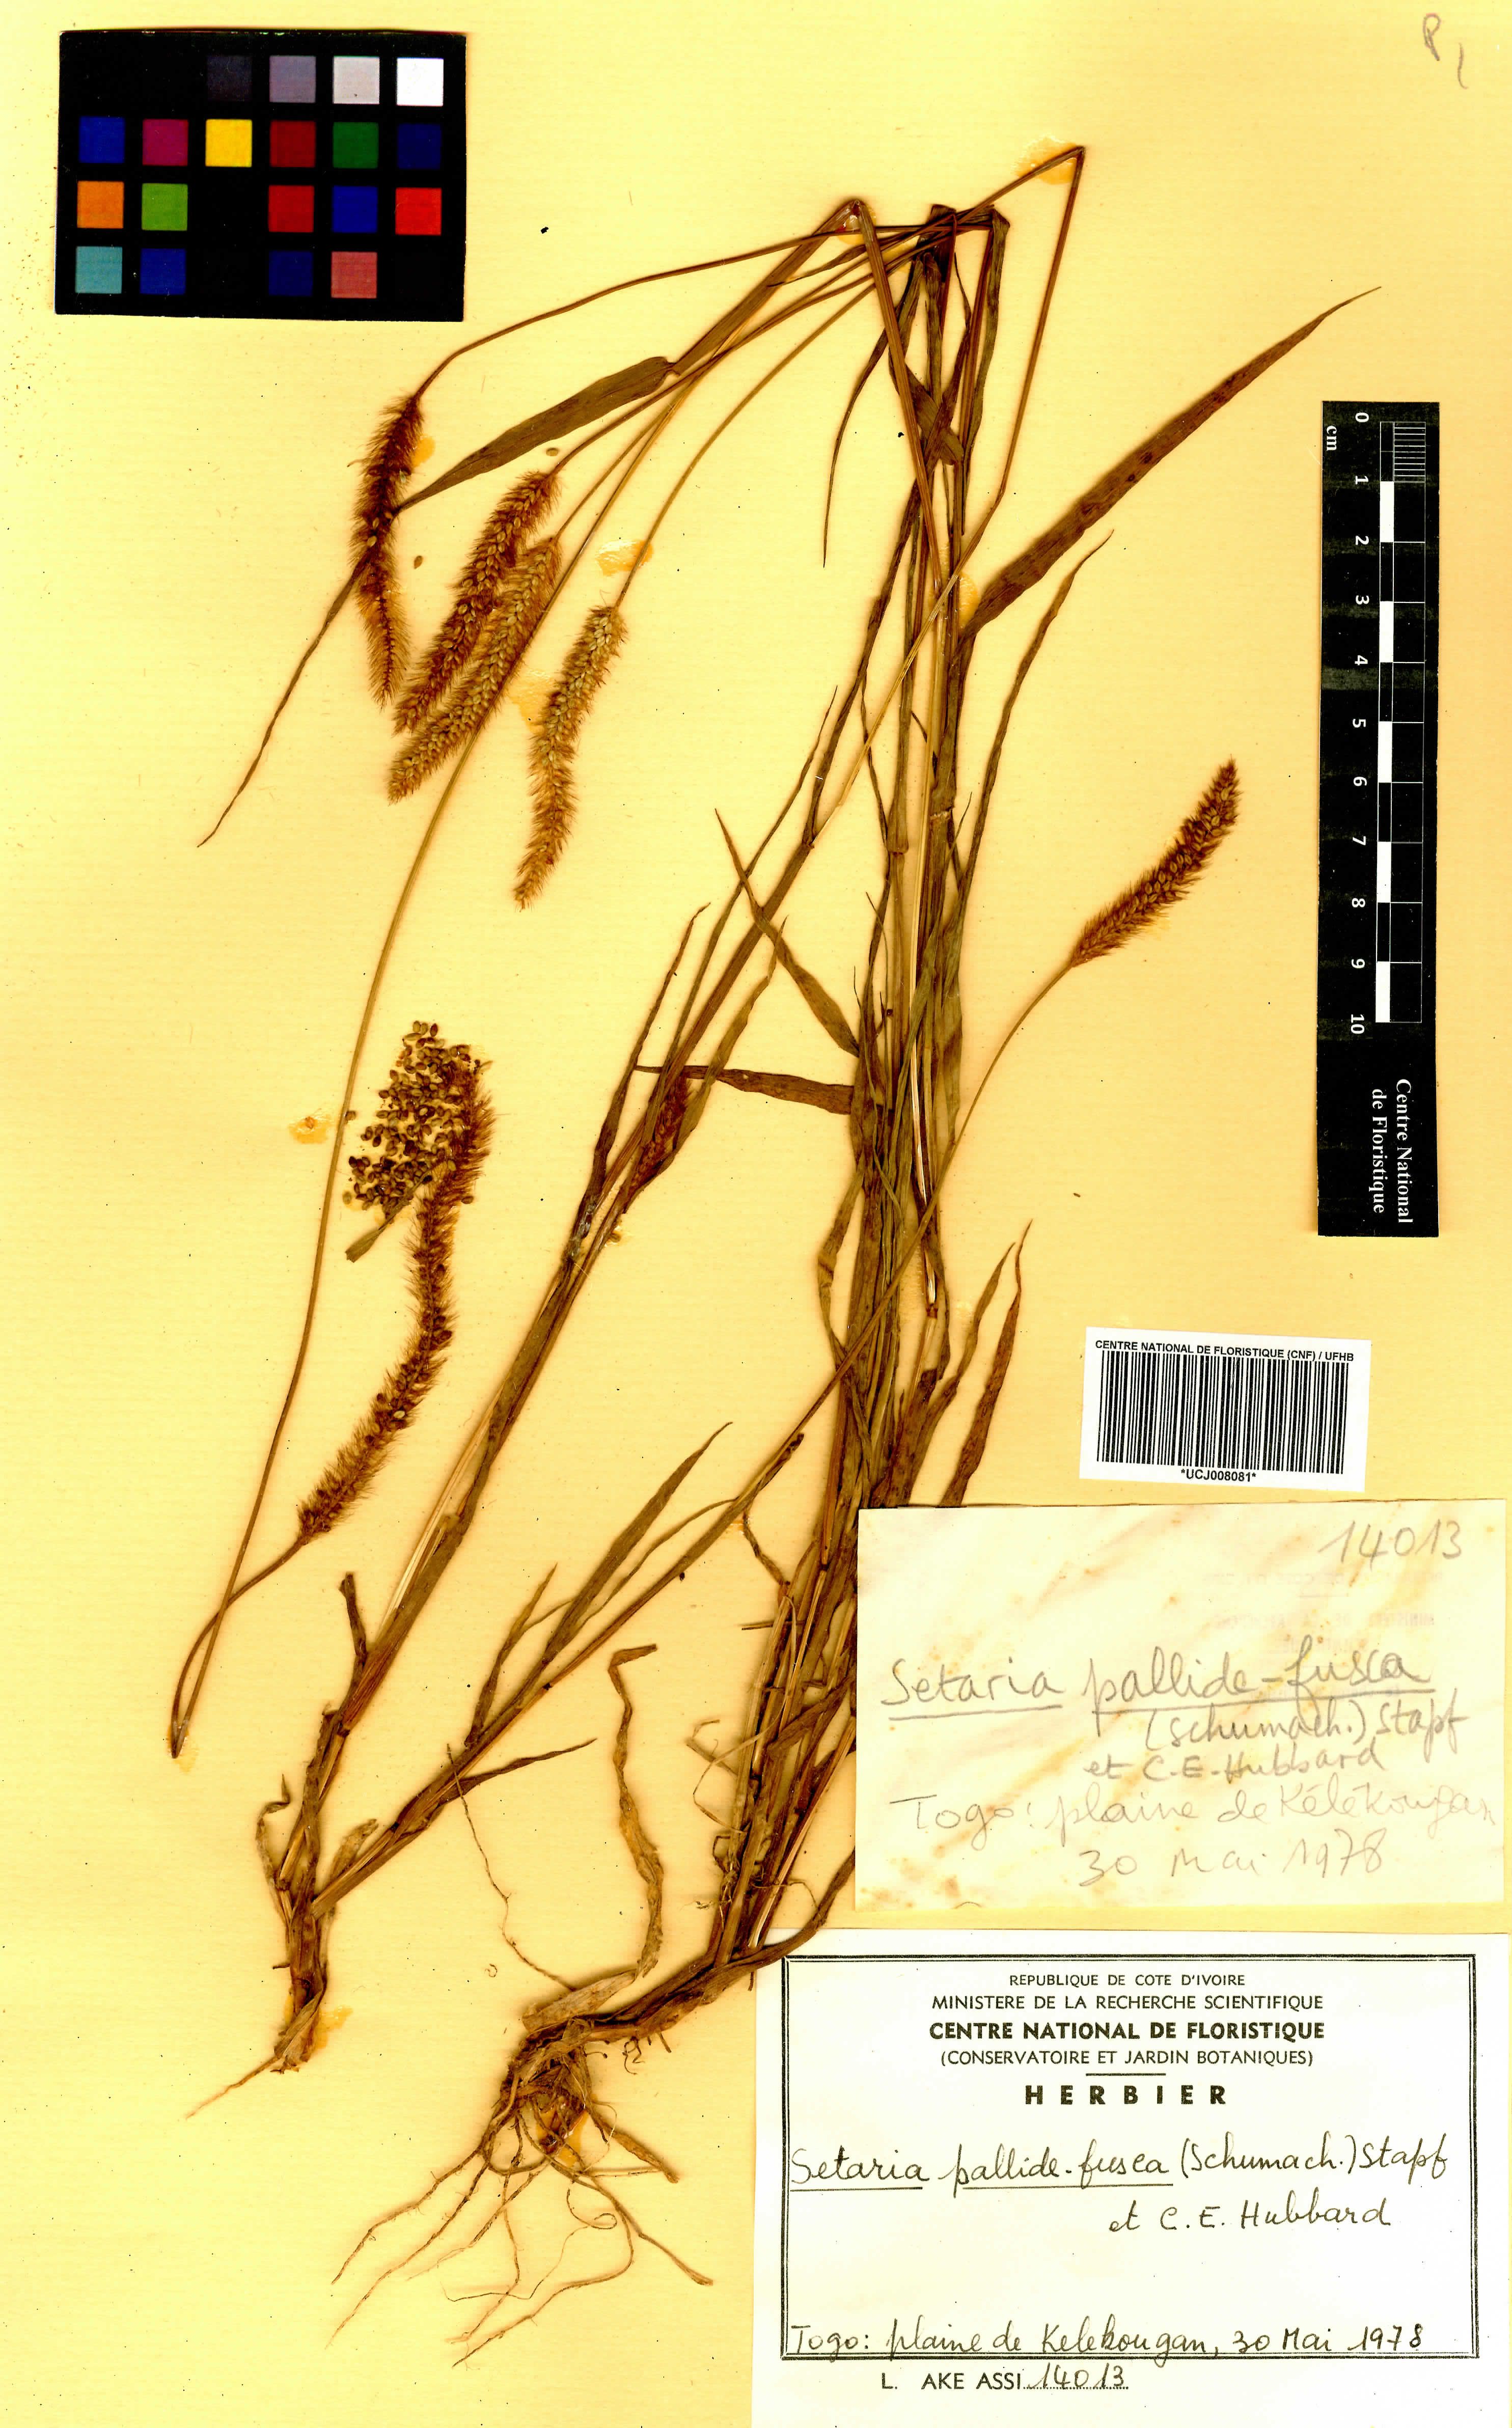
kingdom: Plantae
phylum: Tracheophyta
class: Liliopsida
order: Poales
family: Poaceae
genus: Setaria
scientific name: Setaria italica
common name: Foxtail bristle-grass
